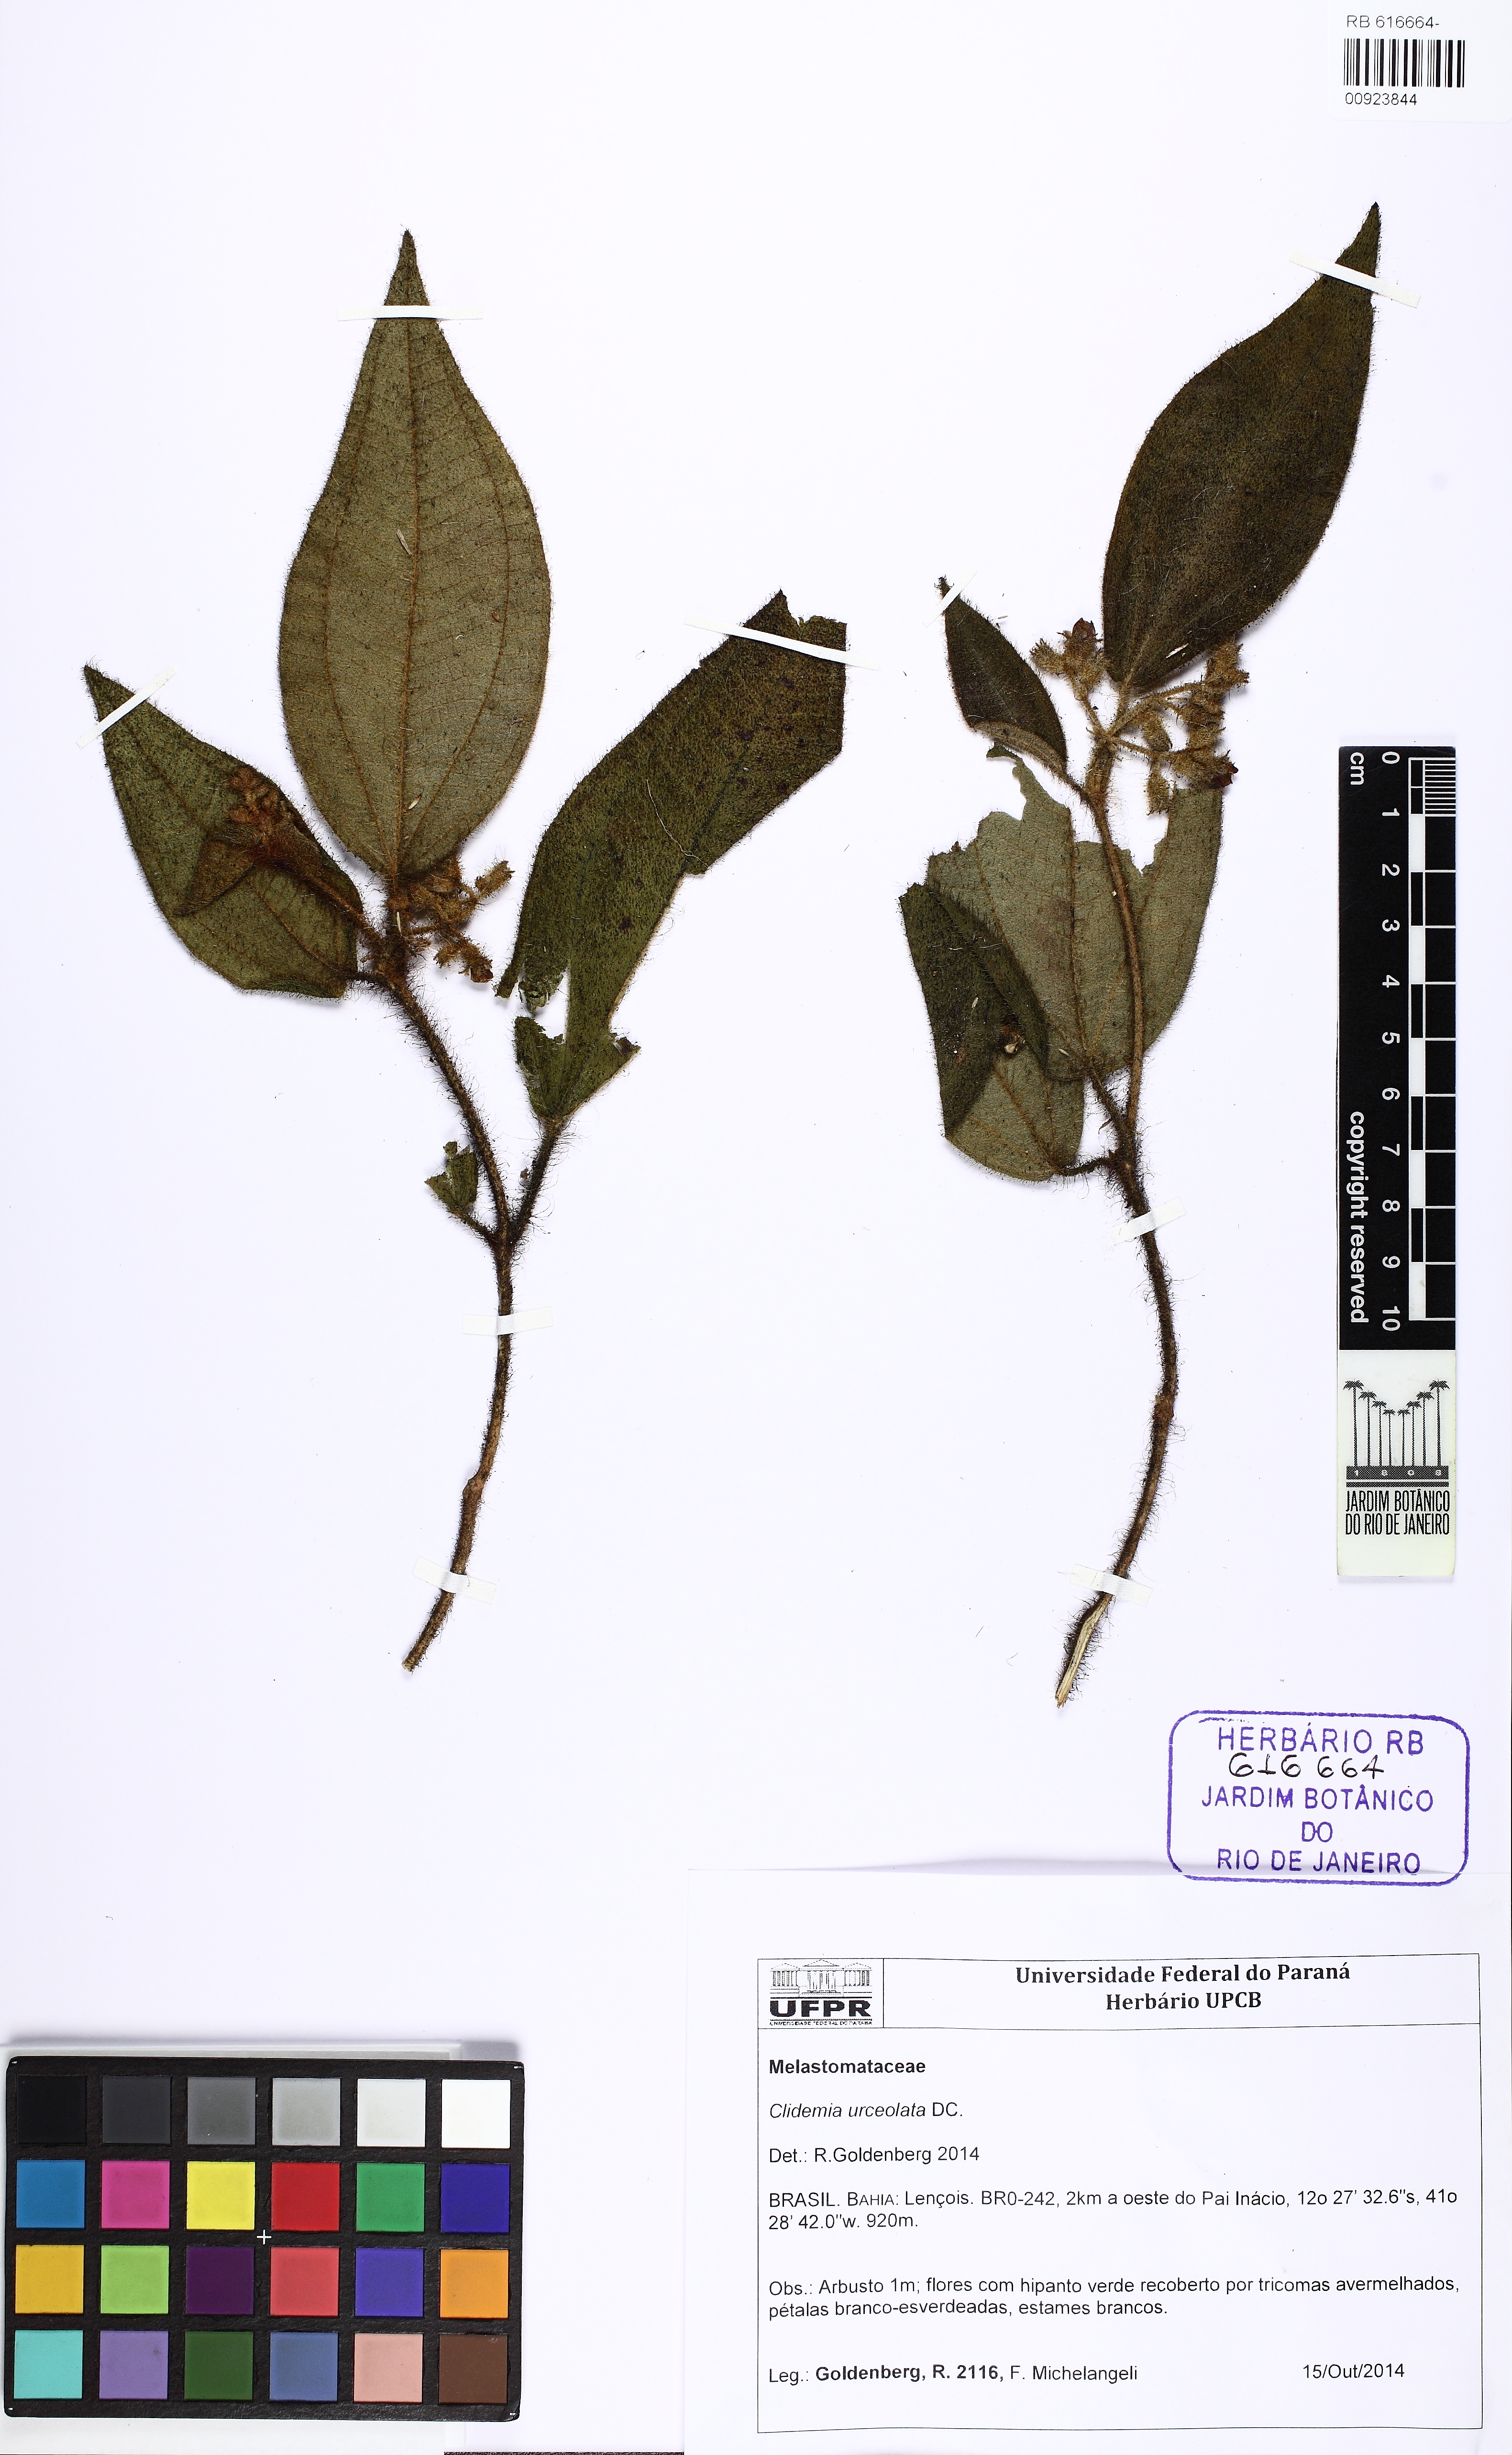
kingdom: Plantae
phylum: Tracheophyta
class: Magnoliopsida
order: Myrtales
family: Melastomataceae
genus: Miconia
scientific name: Miconia neourceolata
